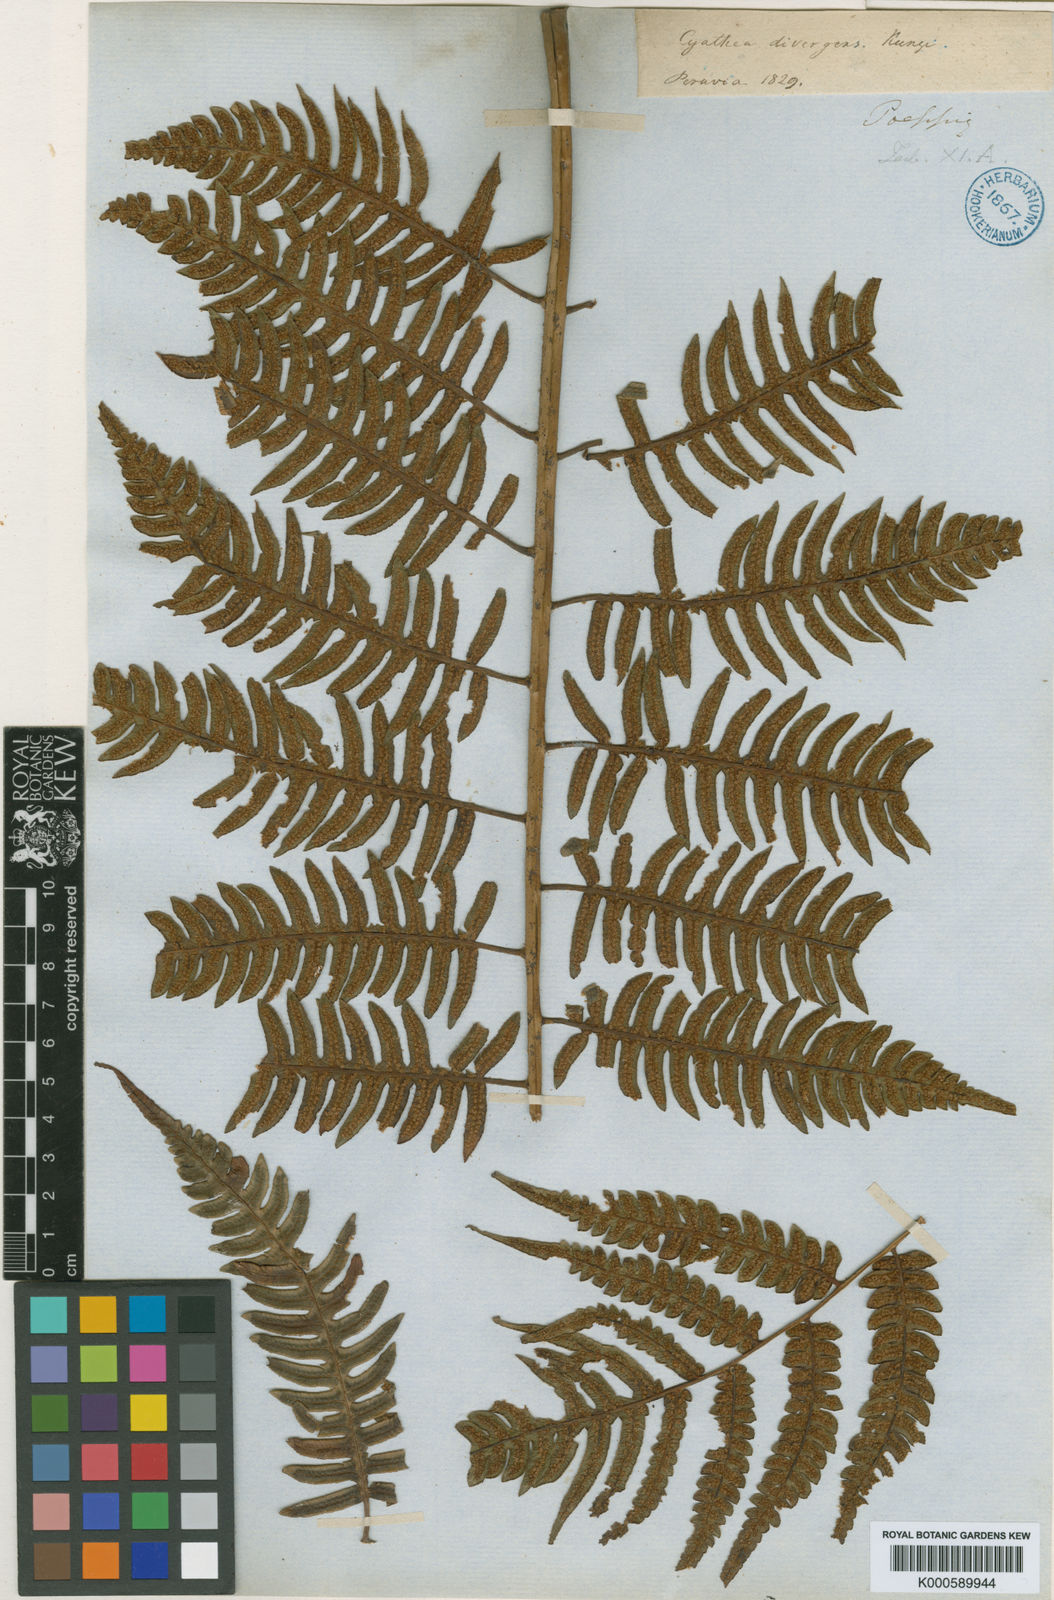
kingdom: Plantae
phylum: Tracheophyta
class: Polypodiopsida
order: Cyatheales
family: Cyatheaceae
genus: Cyathea
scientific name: Cyathea divergens
